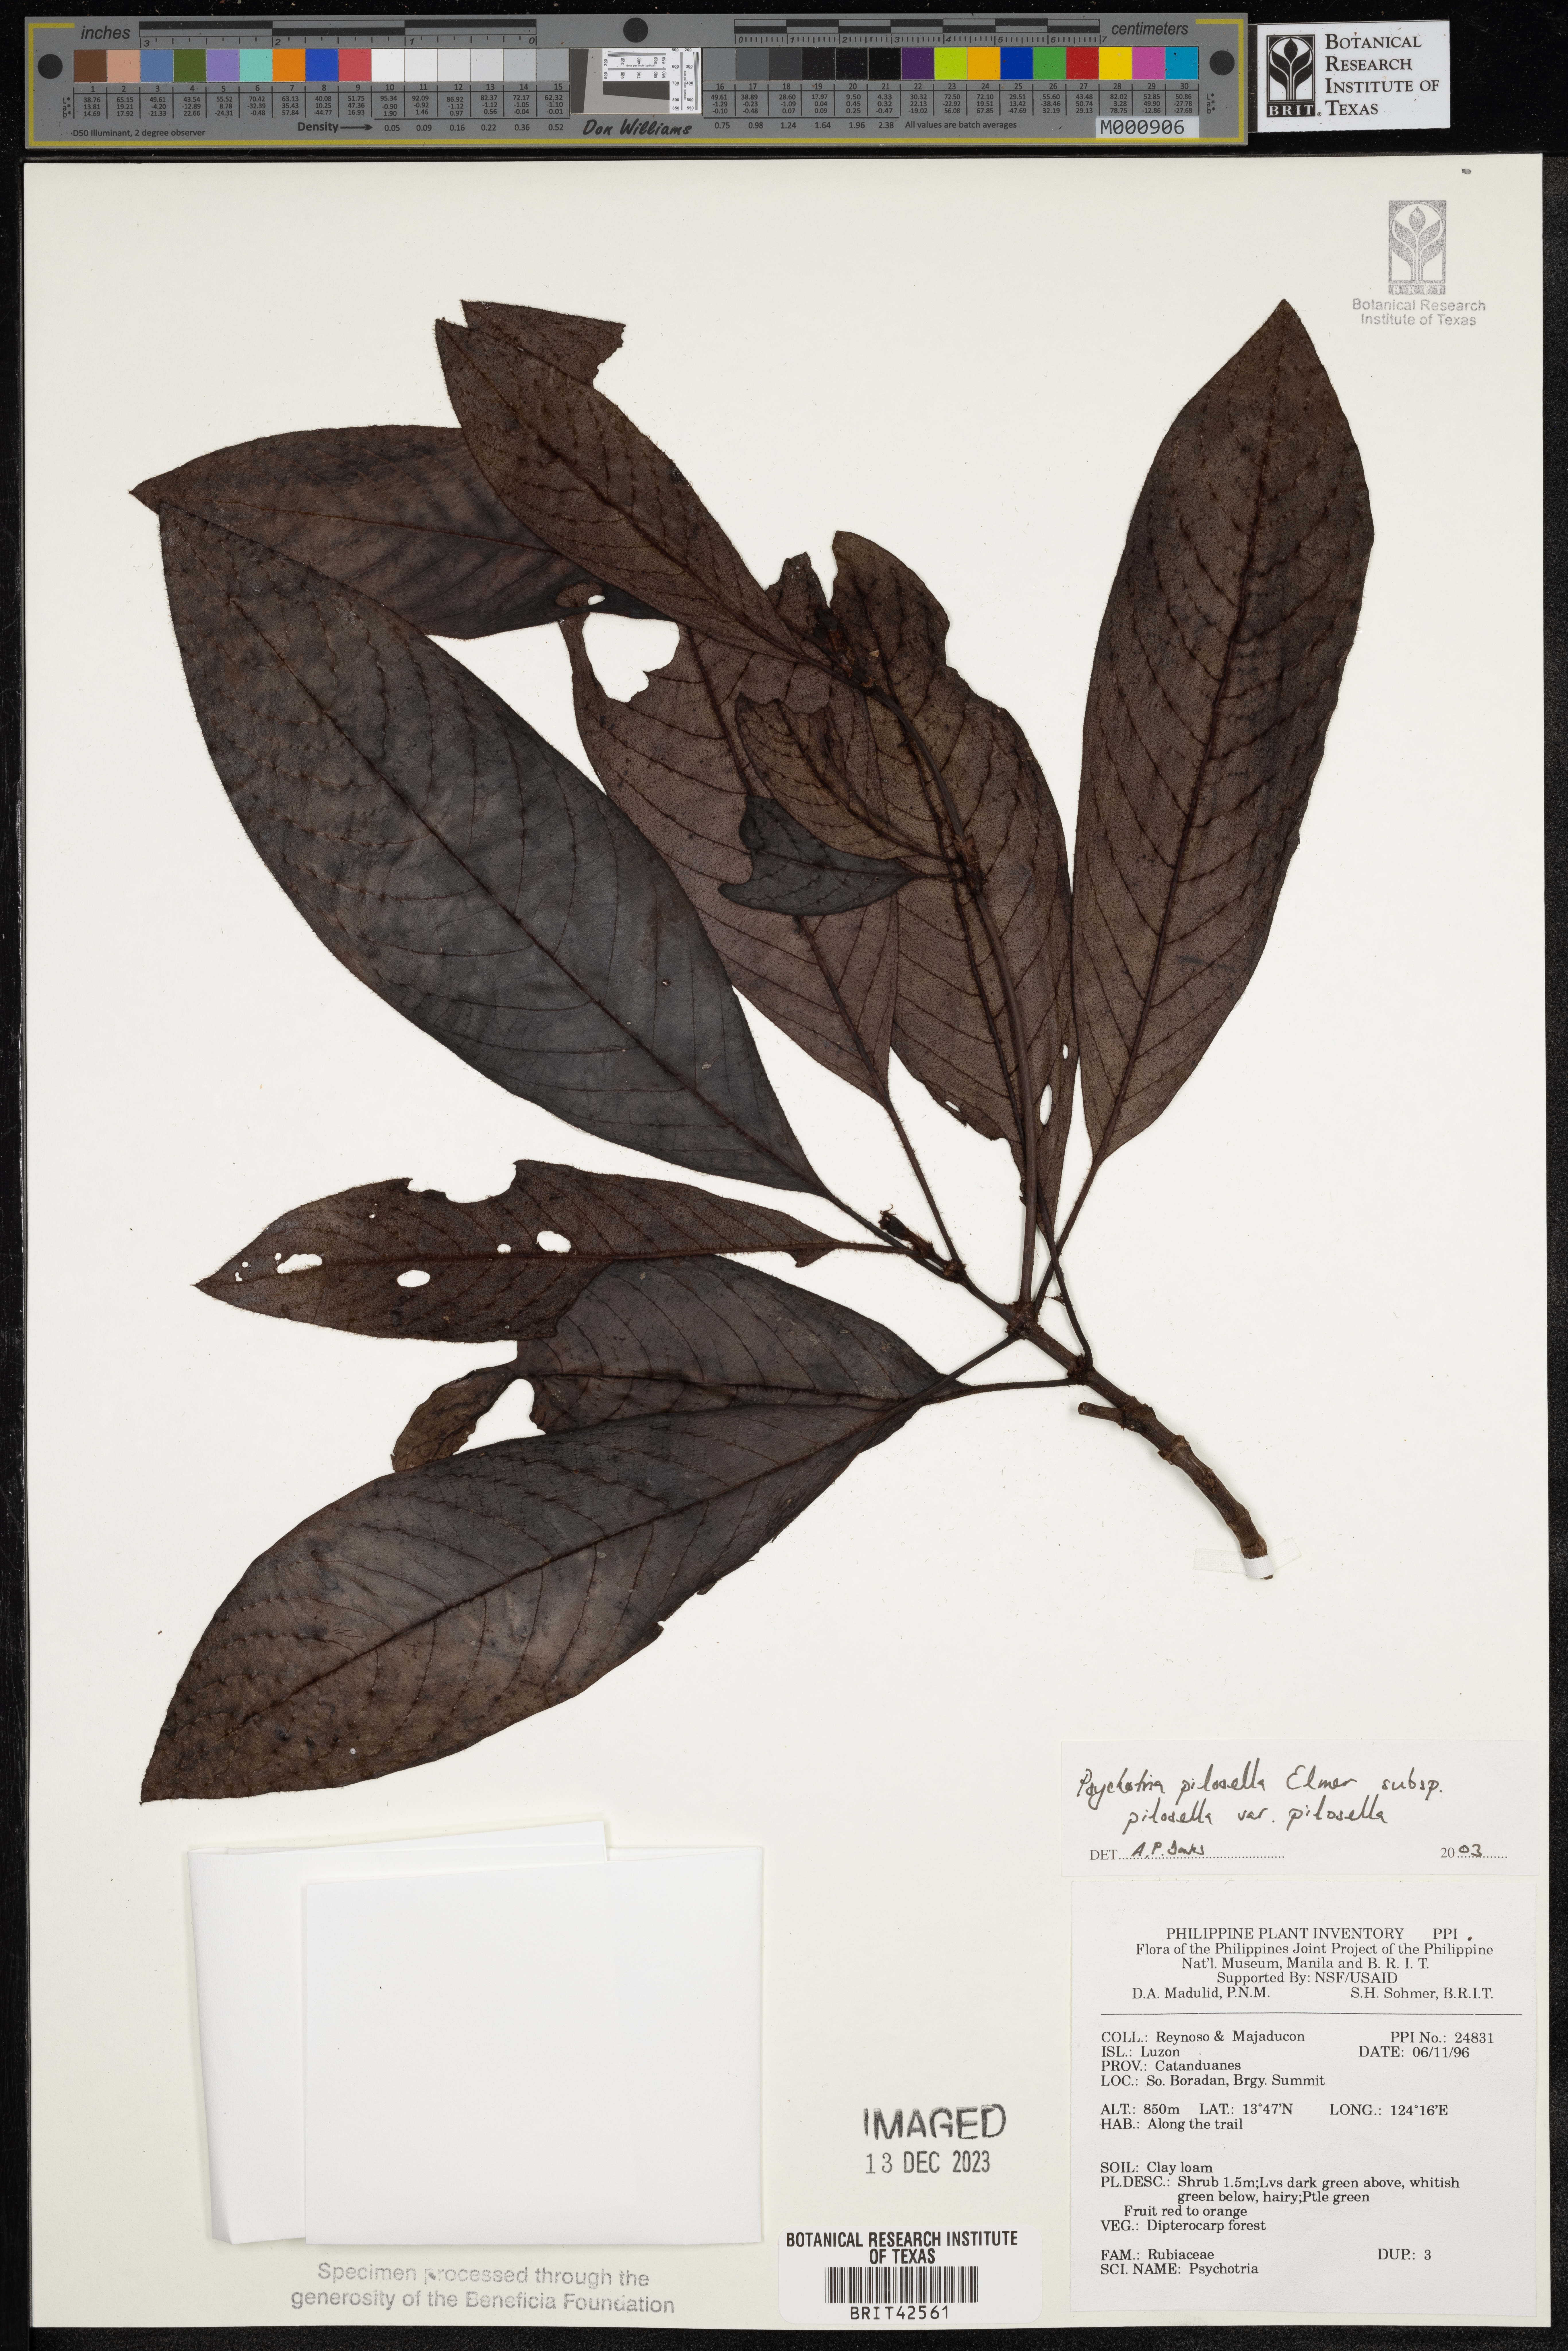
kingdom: Plantae
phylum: Tracheophyta
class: Magnoliopsida
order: Gentianales
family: Rubiaceae
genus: Psychotria
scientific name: Psychotria pilosella
